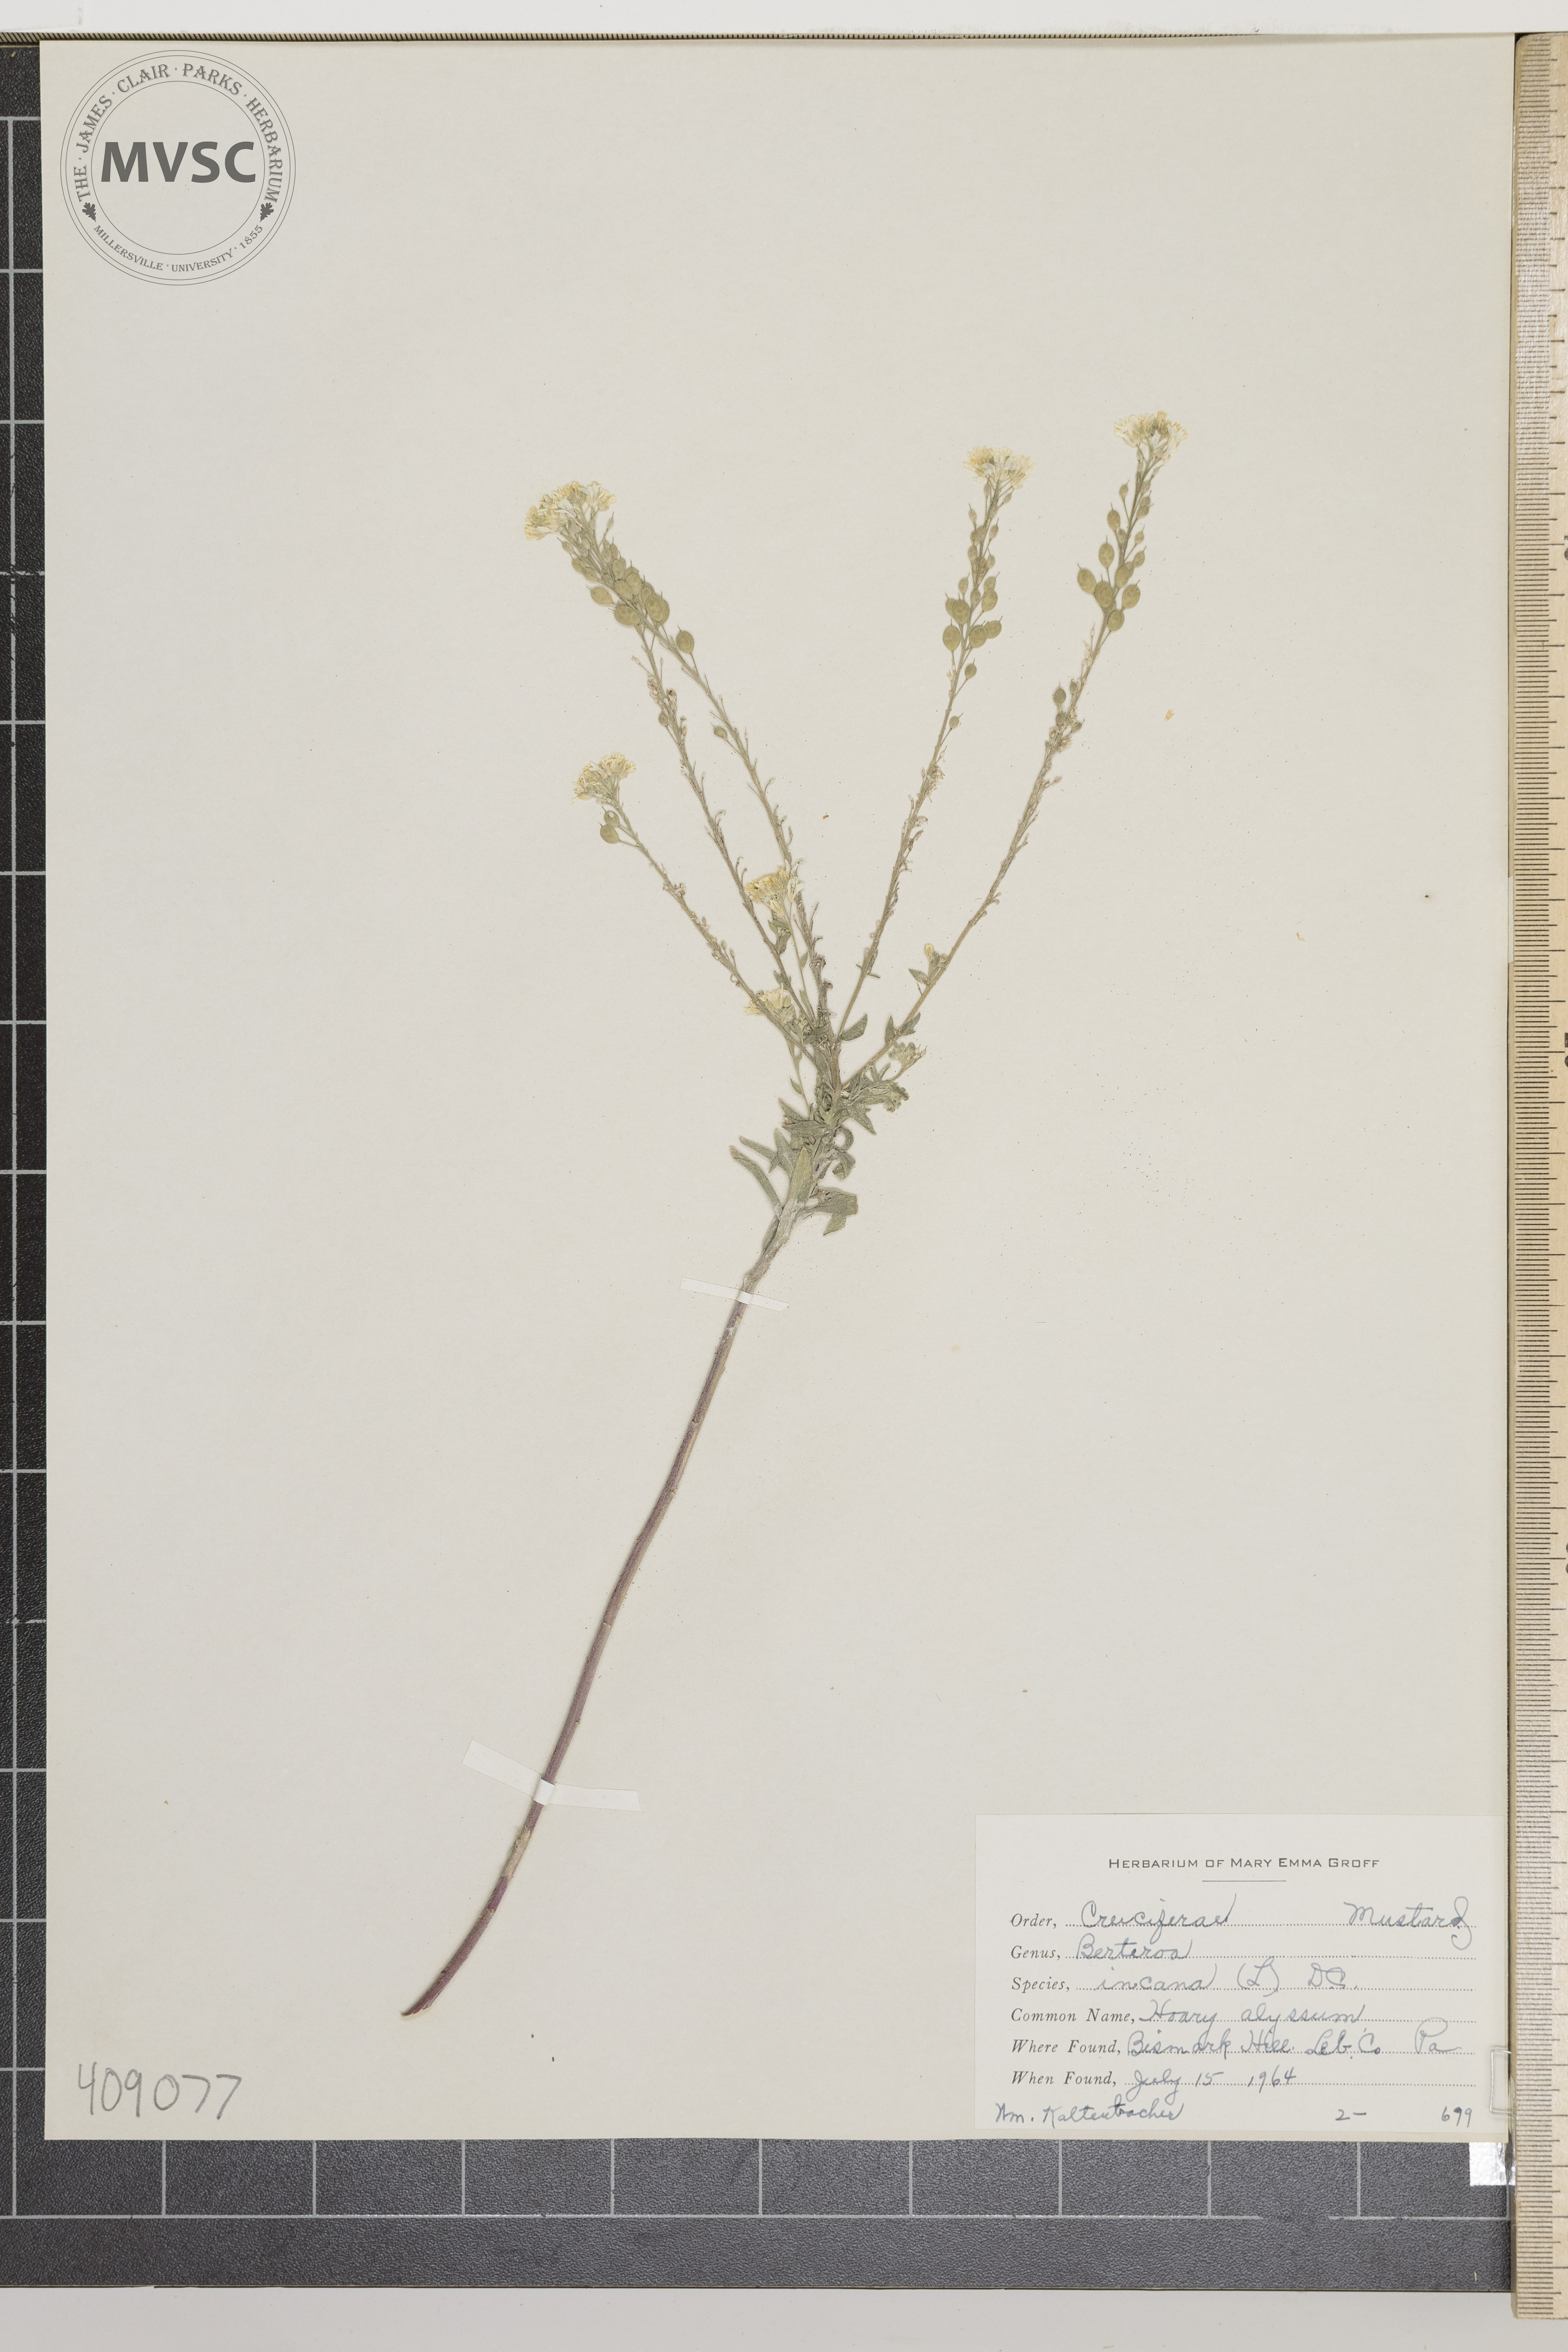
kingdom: Plantae
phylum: Tracheophyta
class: Magnoliopsida
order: Brassicales
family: Brassicaceae
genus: Berteroa
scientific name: Berteroa incana
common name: Hoary alyssum
